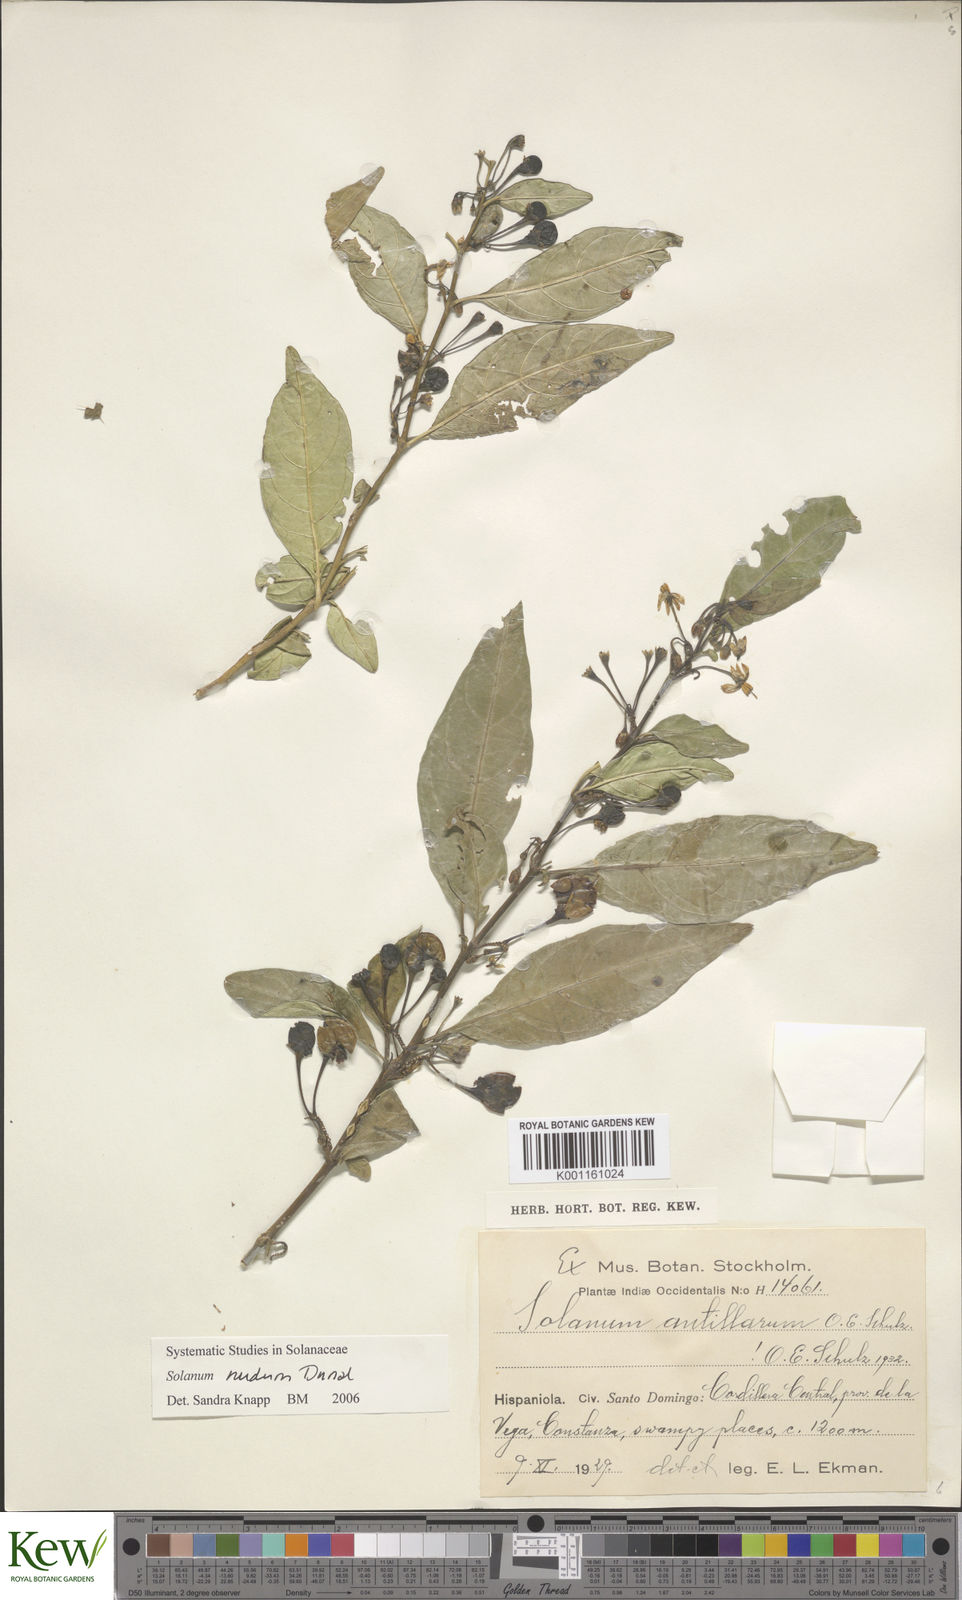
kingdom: Plantae
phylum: Tracheophyta
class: Magnoliopsida
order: Solanales
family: Solanaceae
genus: Solanum
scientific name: Solanum nudum
